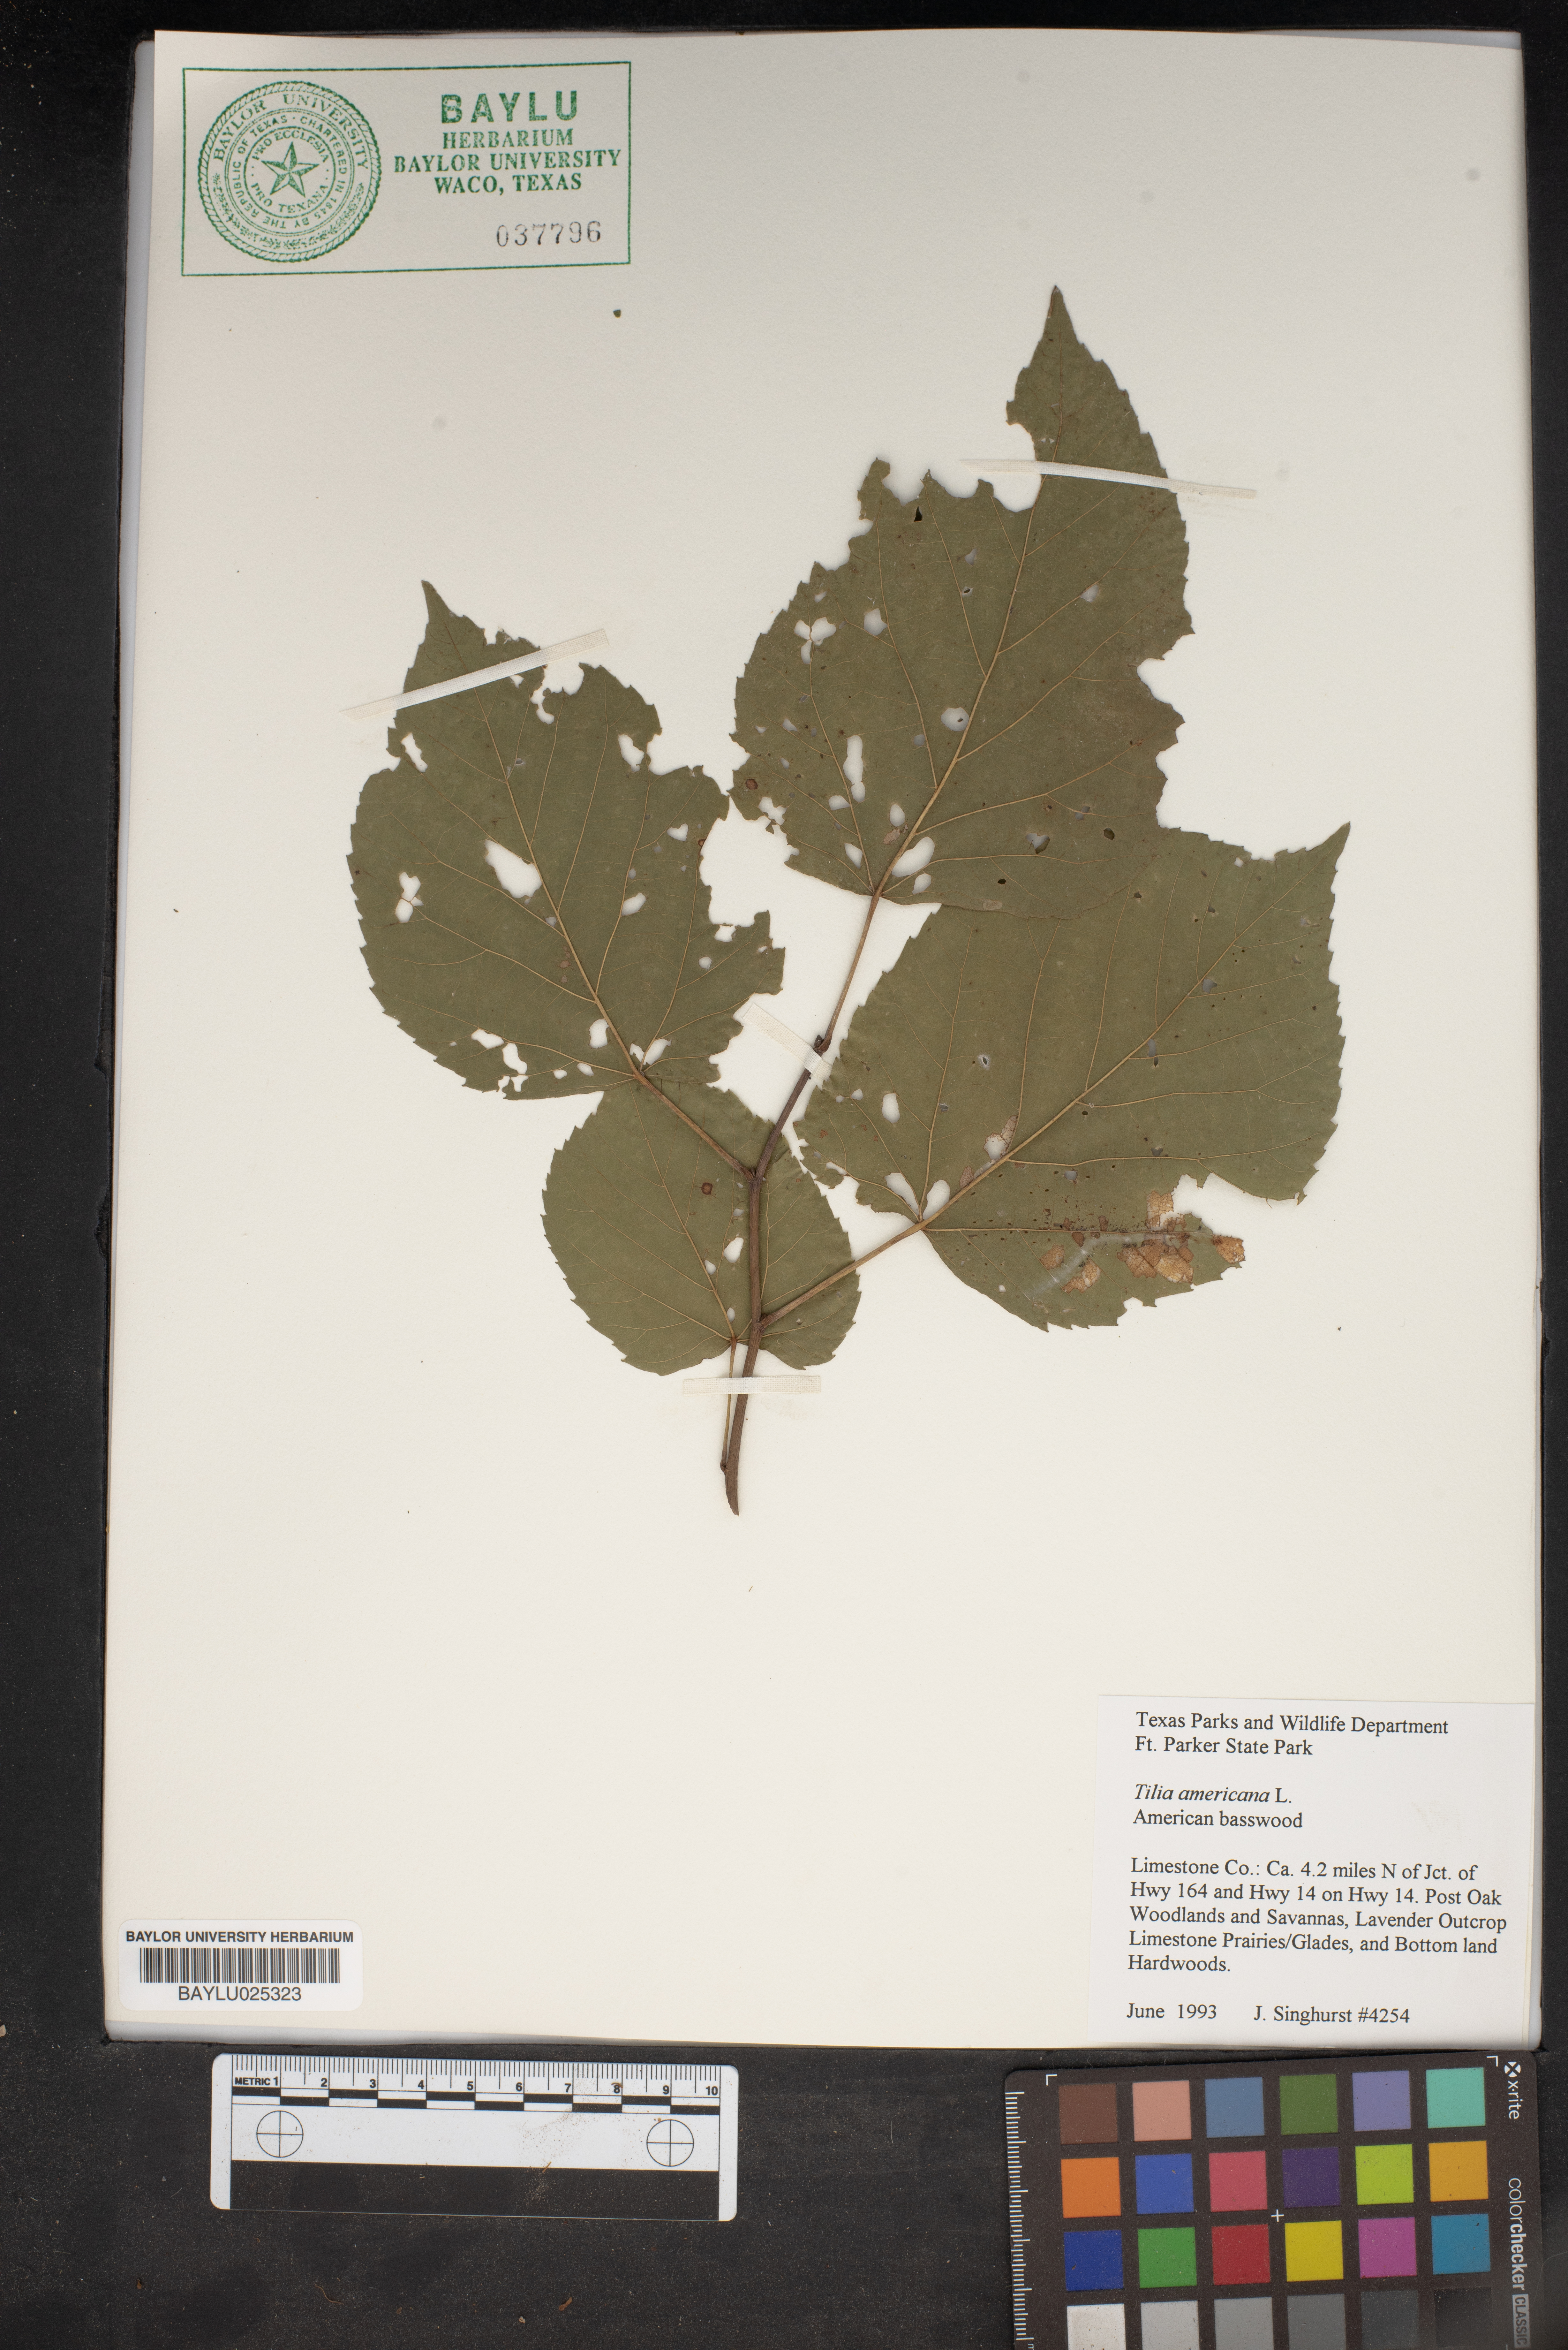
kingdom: Plantae
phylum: Tracheophyta
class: Magnoliopsida
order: Malvales
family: Malvaceae
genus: Tilia
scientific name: Tilia americana
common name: Basswood
